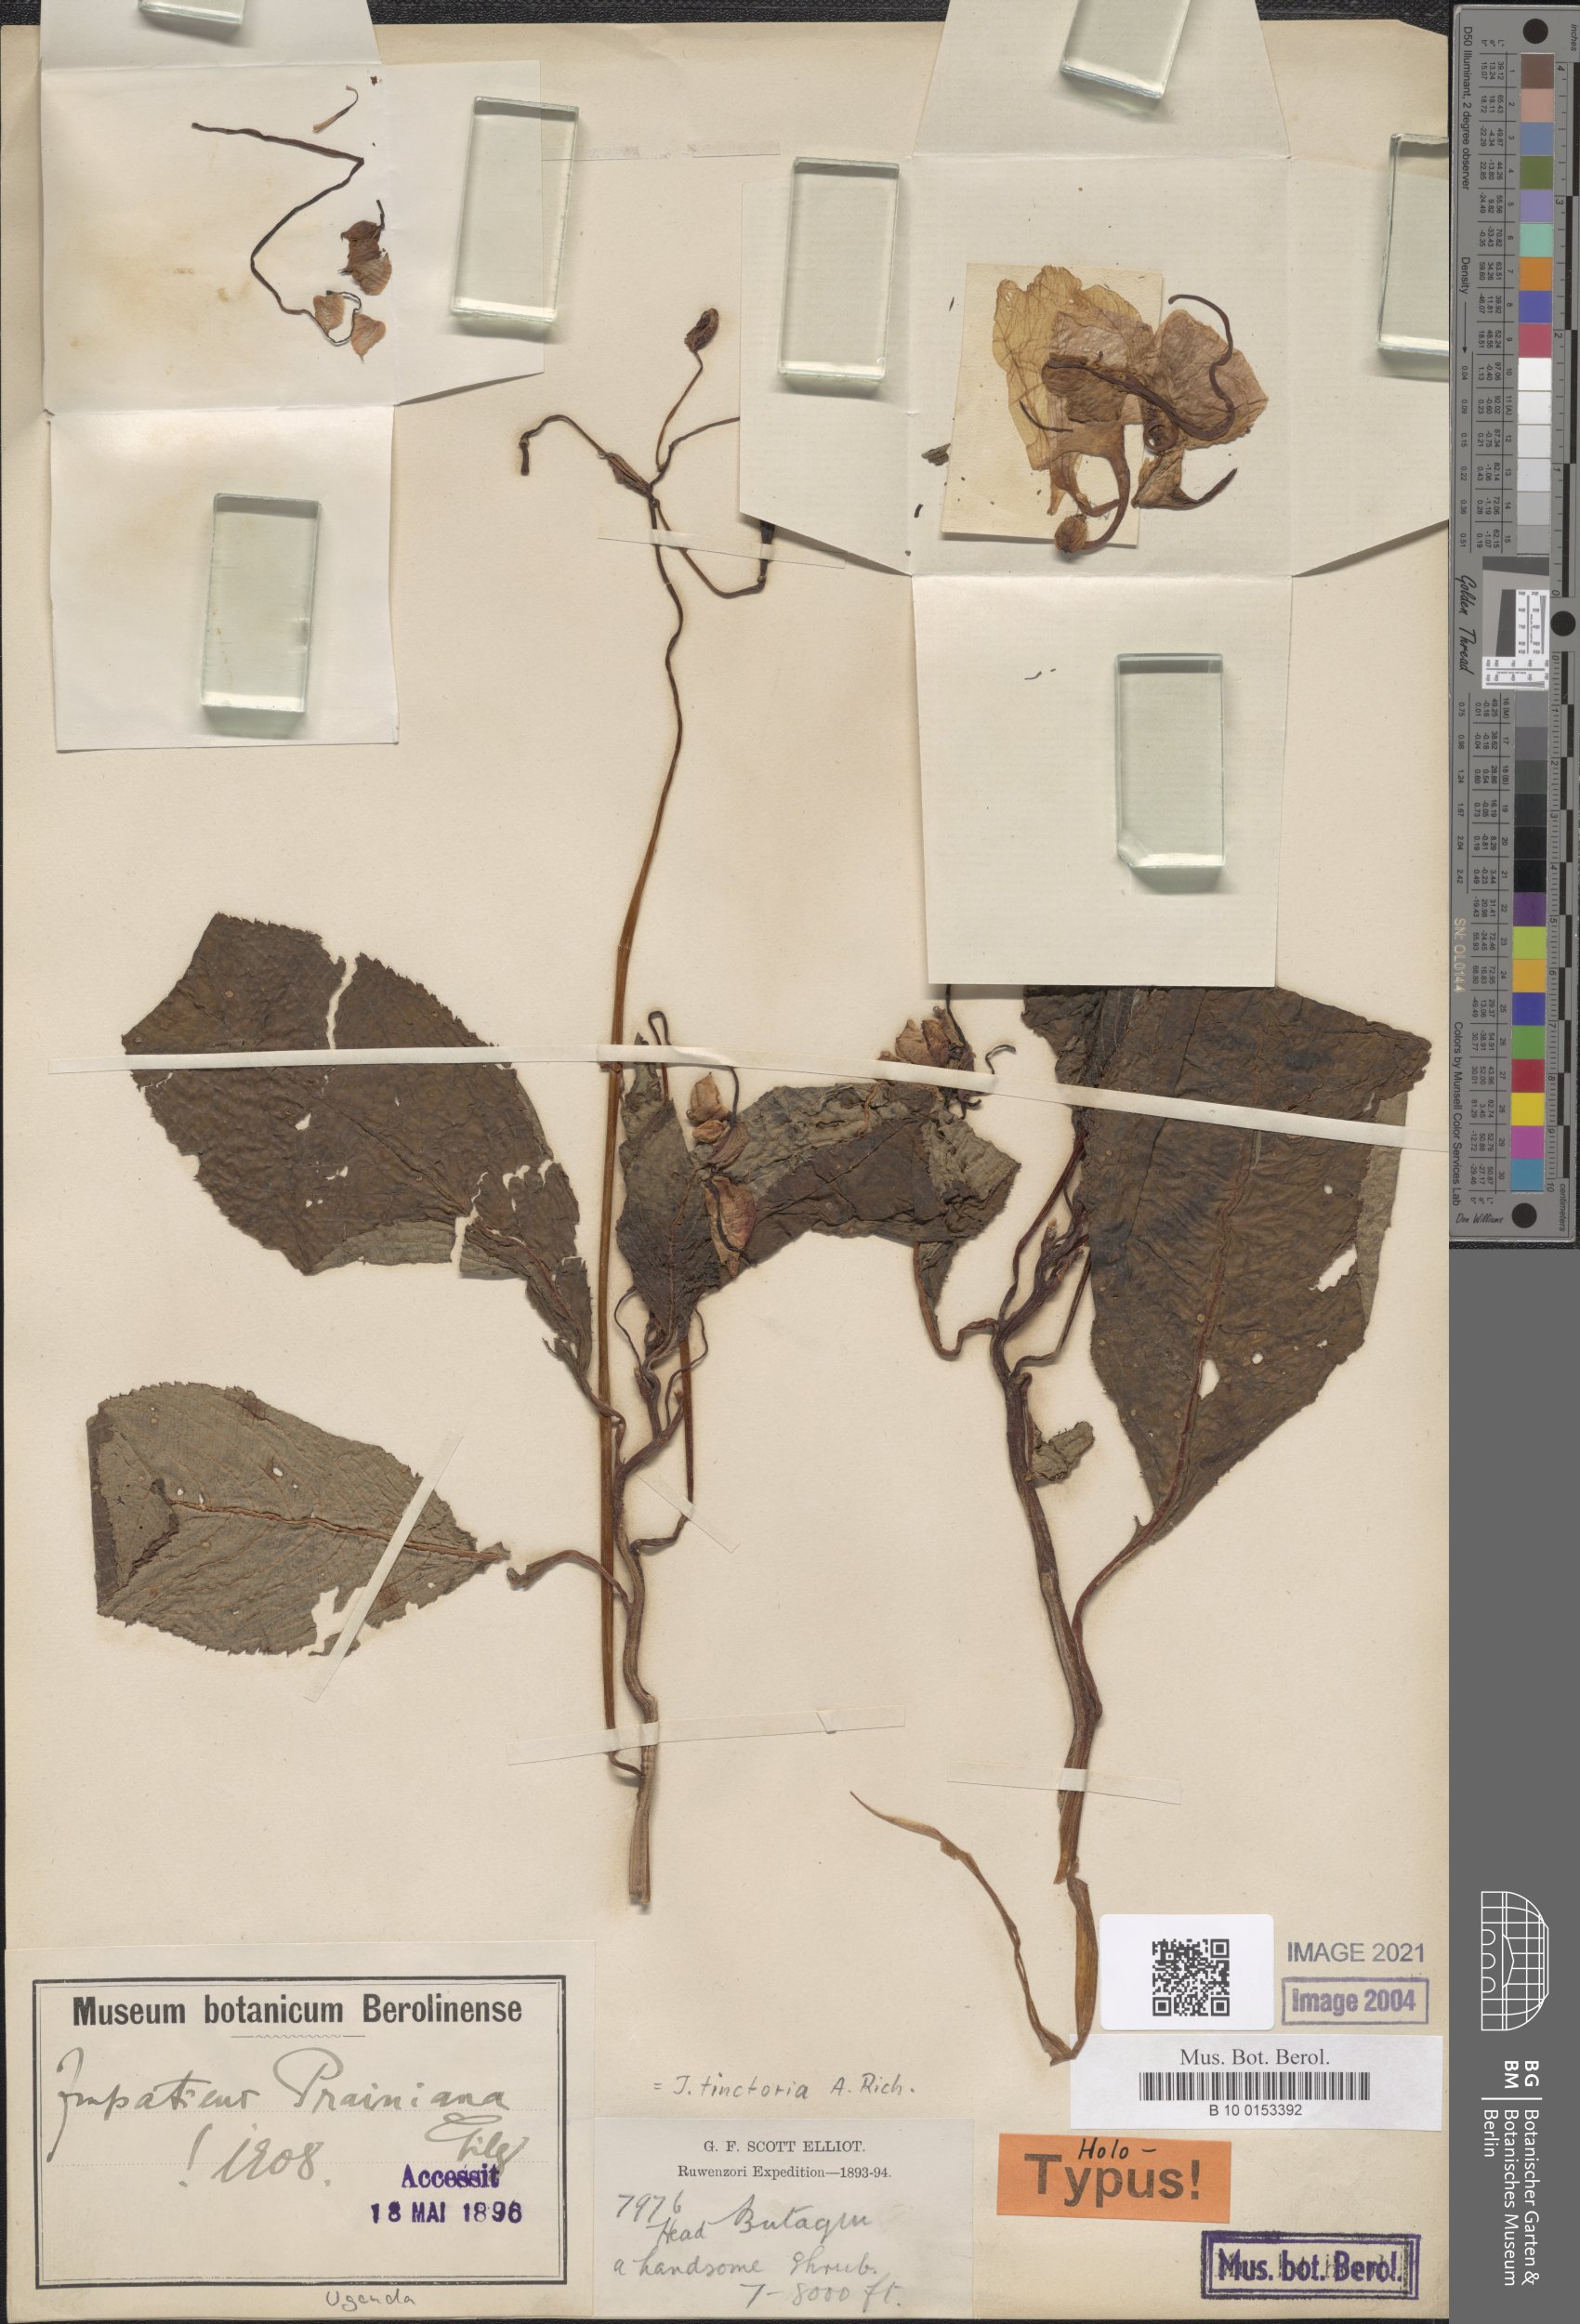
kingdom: Plantae
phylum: Tracheophyta
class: Magnoliopsida
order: Ericales
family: Balsaminaceae
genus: Impatiens
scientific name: Impatiens tinctoria
